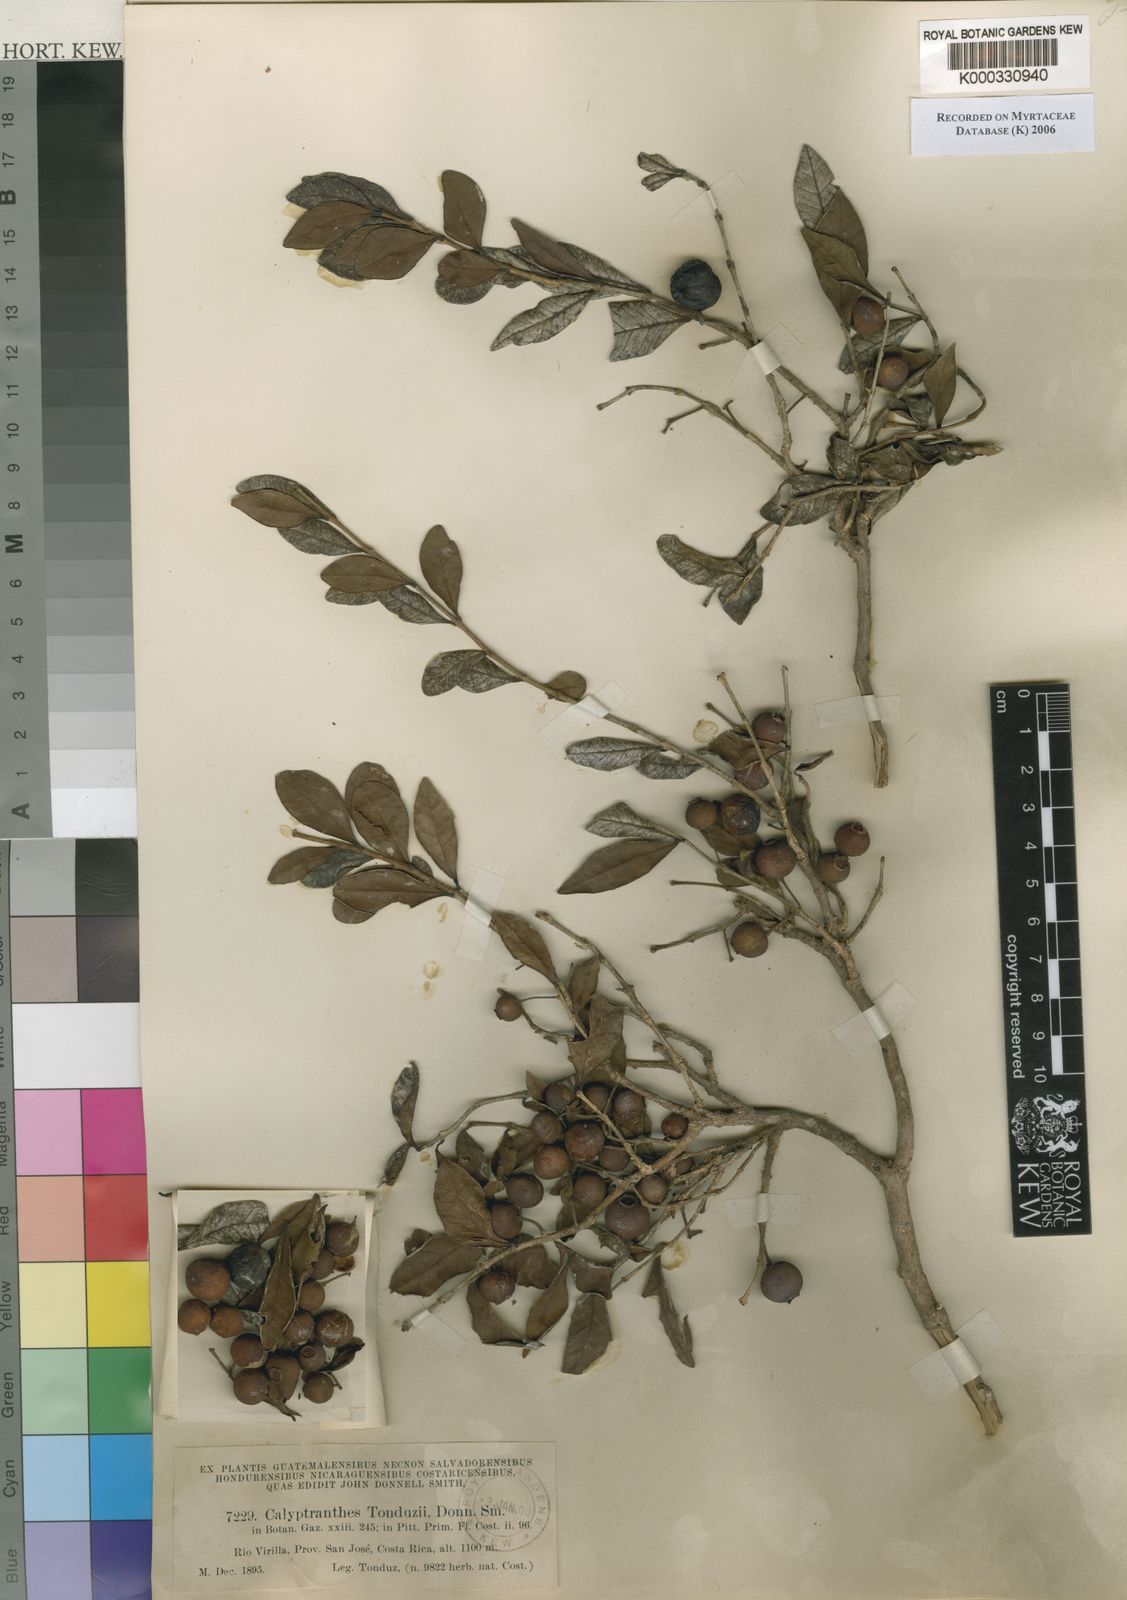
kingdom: Plantae
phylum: Tracheophyta
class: Magnoliopsida
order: Myrtales
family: Myrtaceae
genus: Psidium
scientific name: Psidium sartorianum
